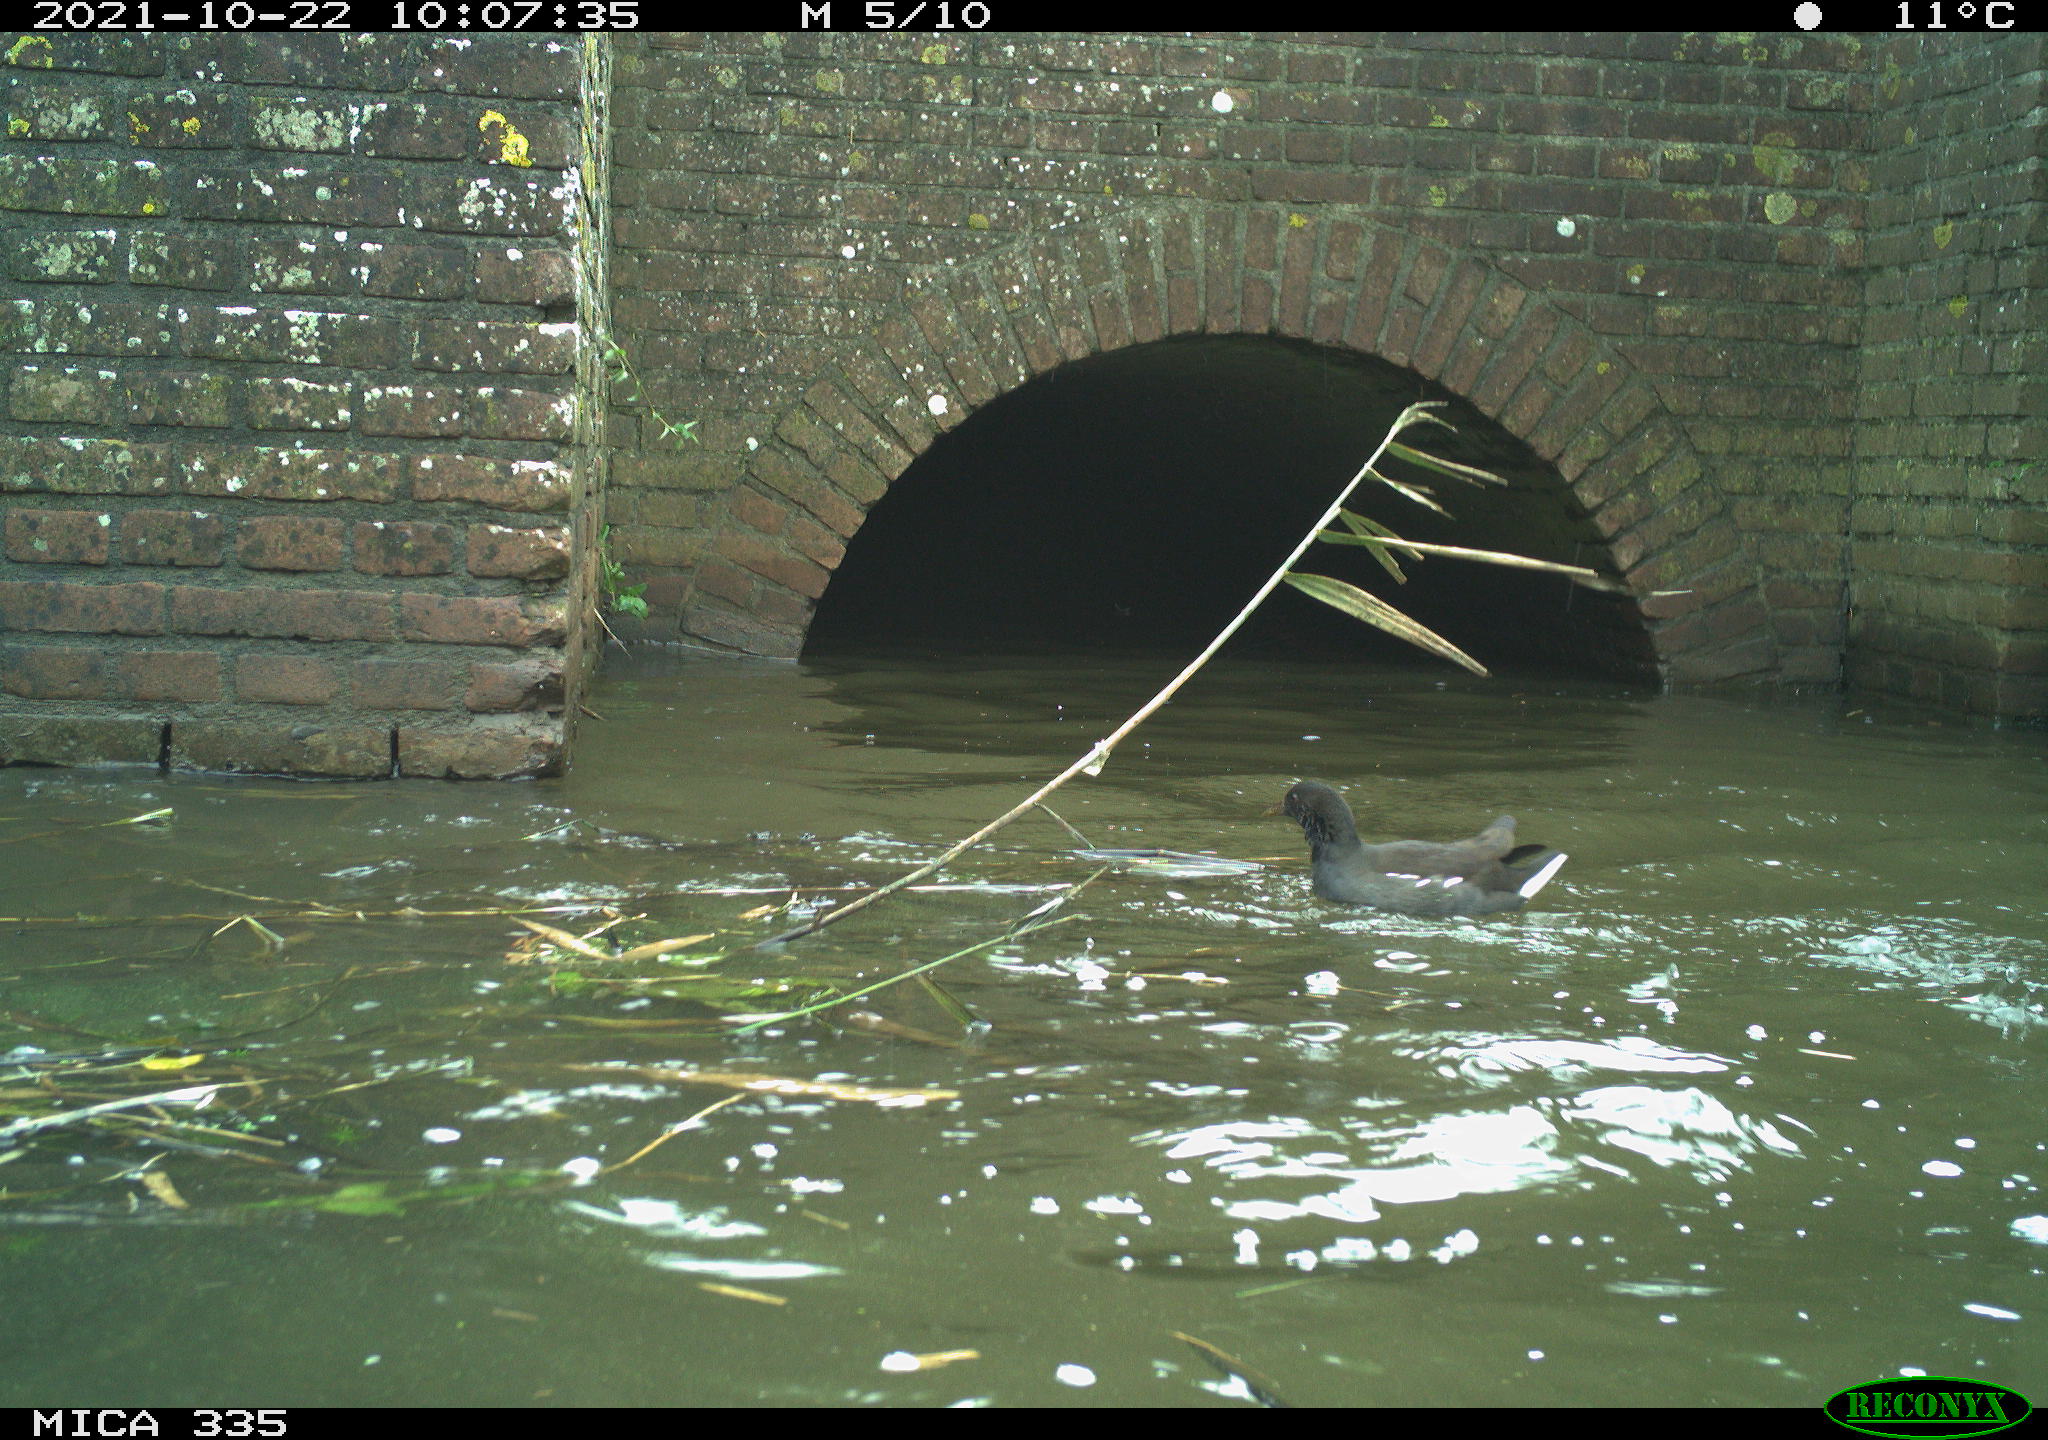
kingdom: Animalia
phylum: Chordata
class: Aves
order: Gruiformes
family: Rallidae
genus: Gallinula
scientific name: Gallinula chloropus
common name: Common moorhen
